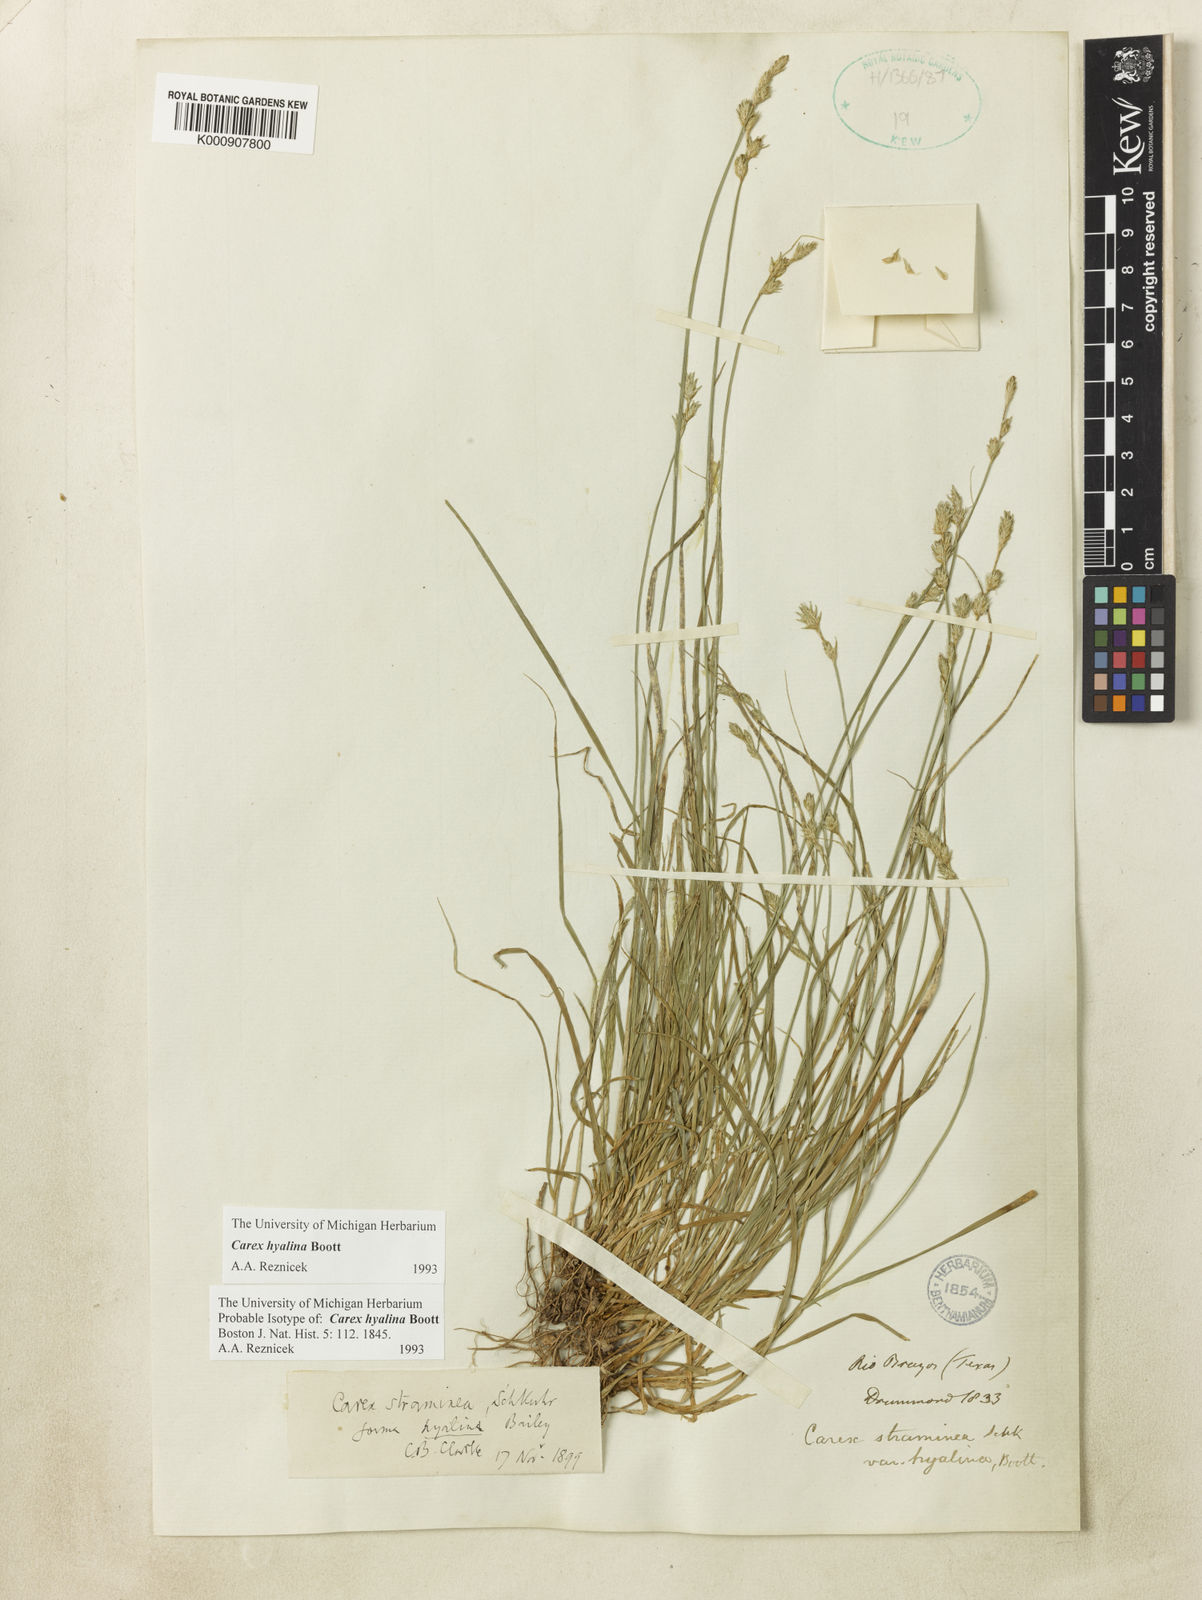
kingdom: Plantae
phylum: Tracheophyta
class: Liliopsida
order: Poales
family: Cyperaceae
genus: Carex
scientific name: Carex hyalina
